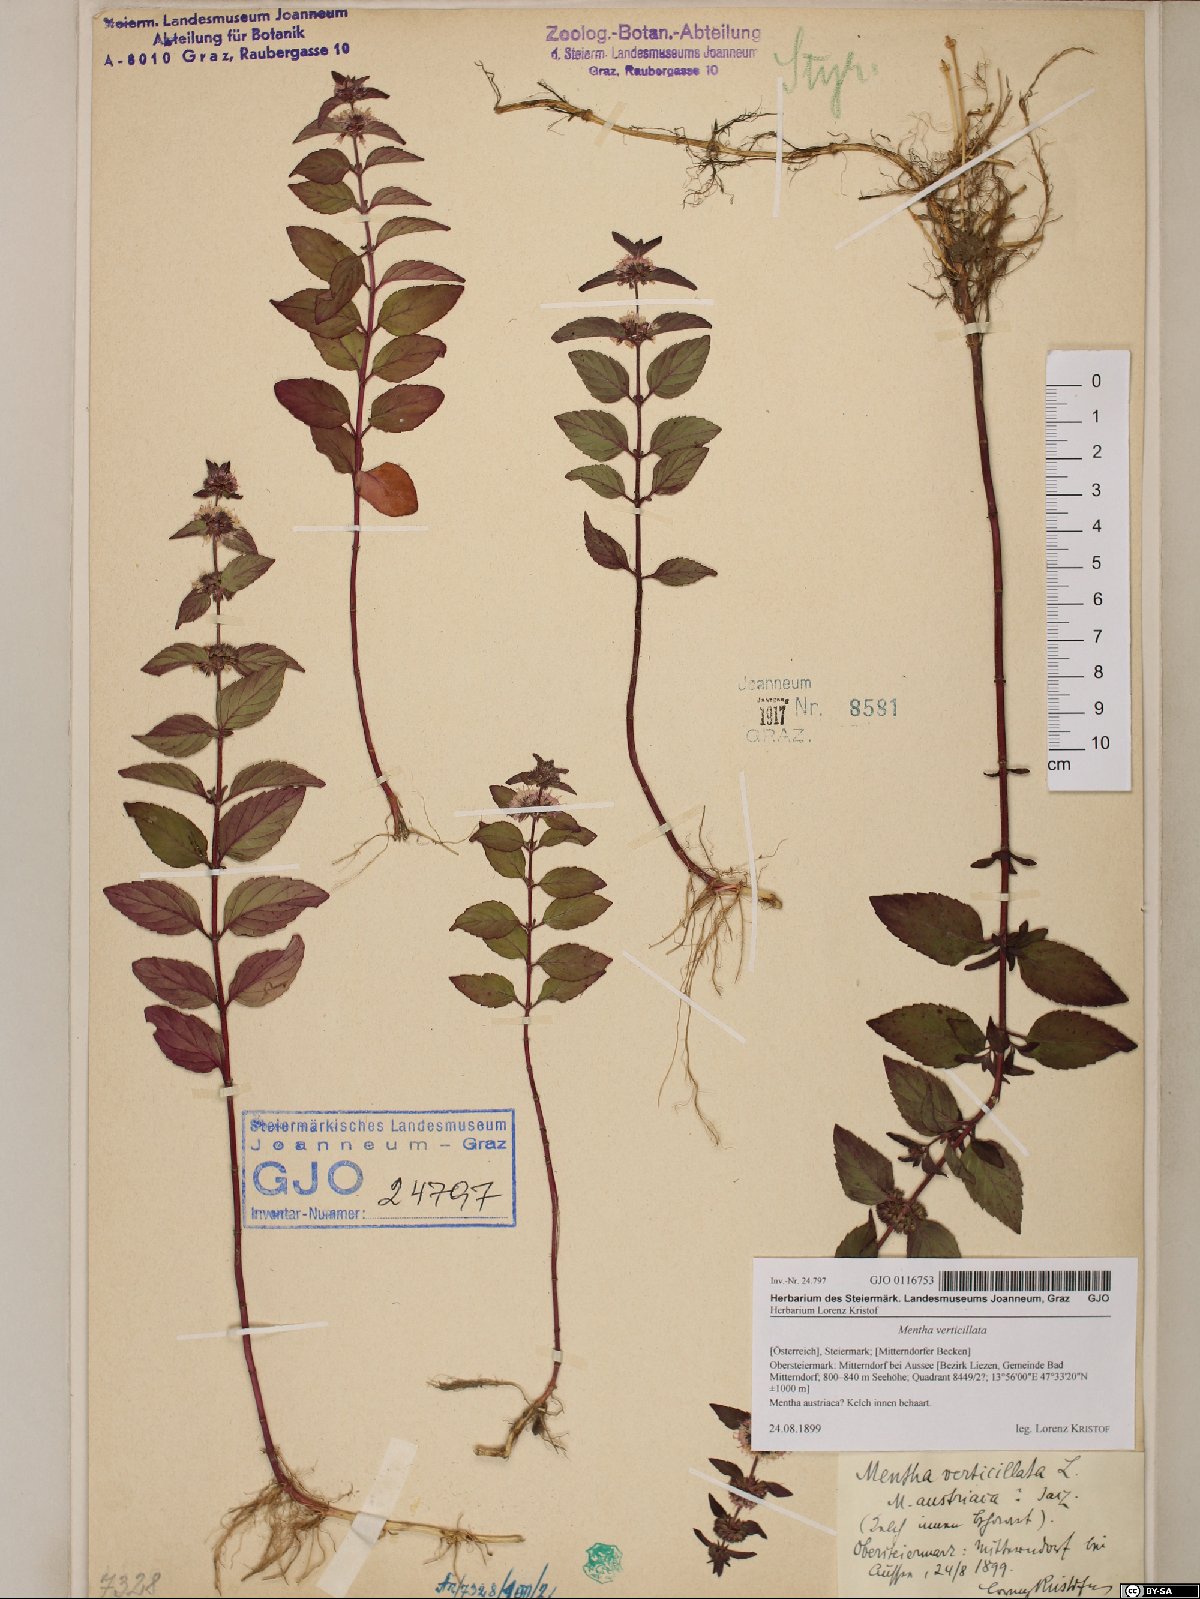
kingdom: Plantae
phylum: Tracheophyta
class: Magnoliopsida
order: Lamiales
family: Lamiaceae
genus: Mentha
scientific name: Mentha verticillata
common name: Mint
